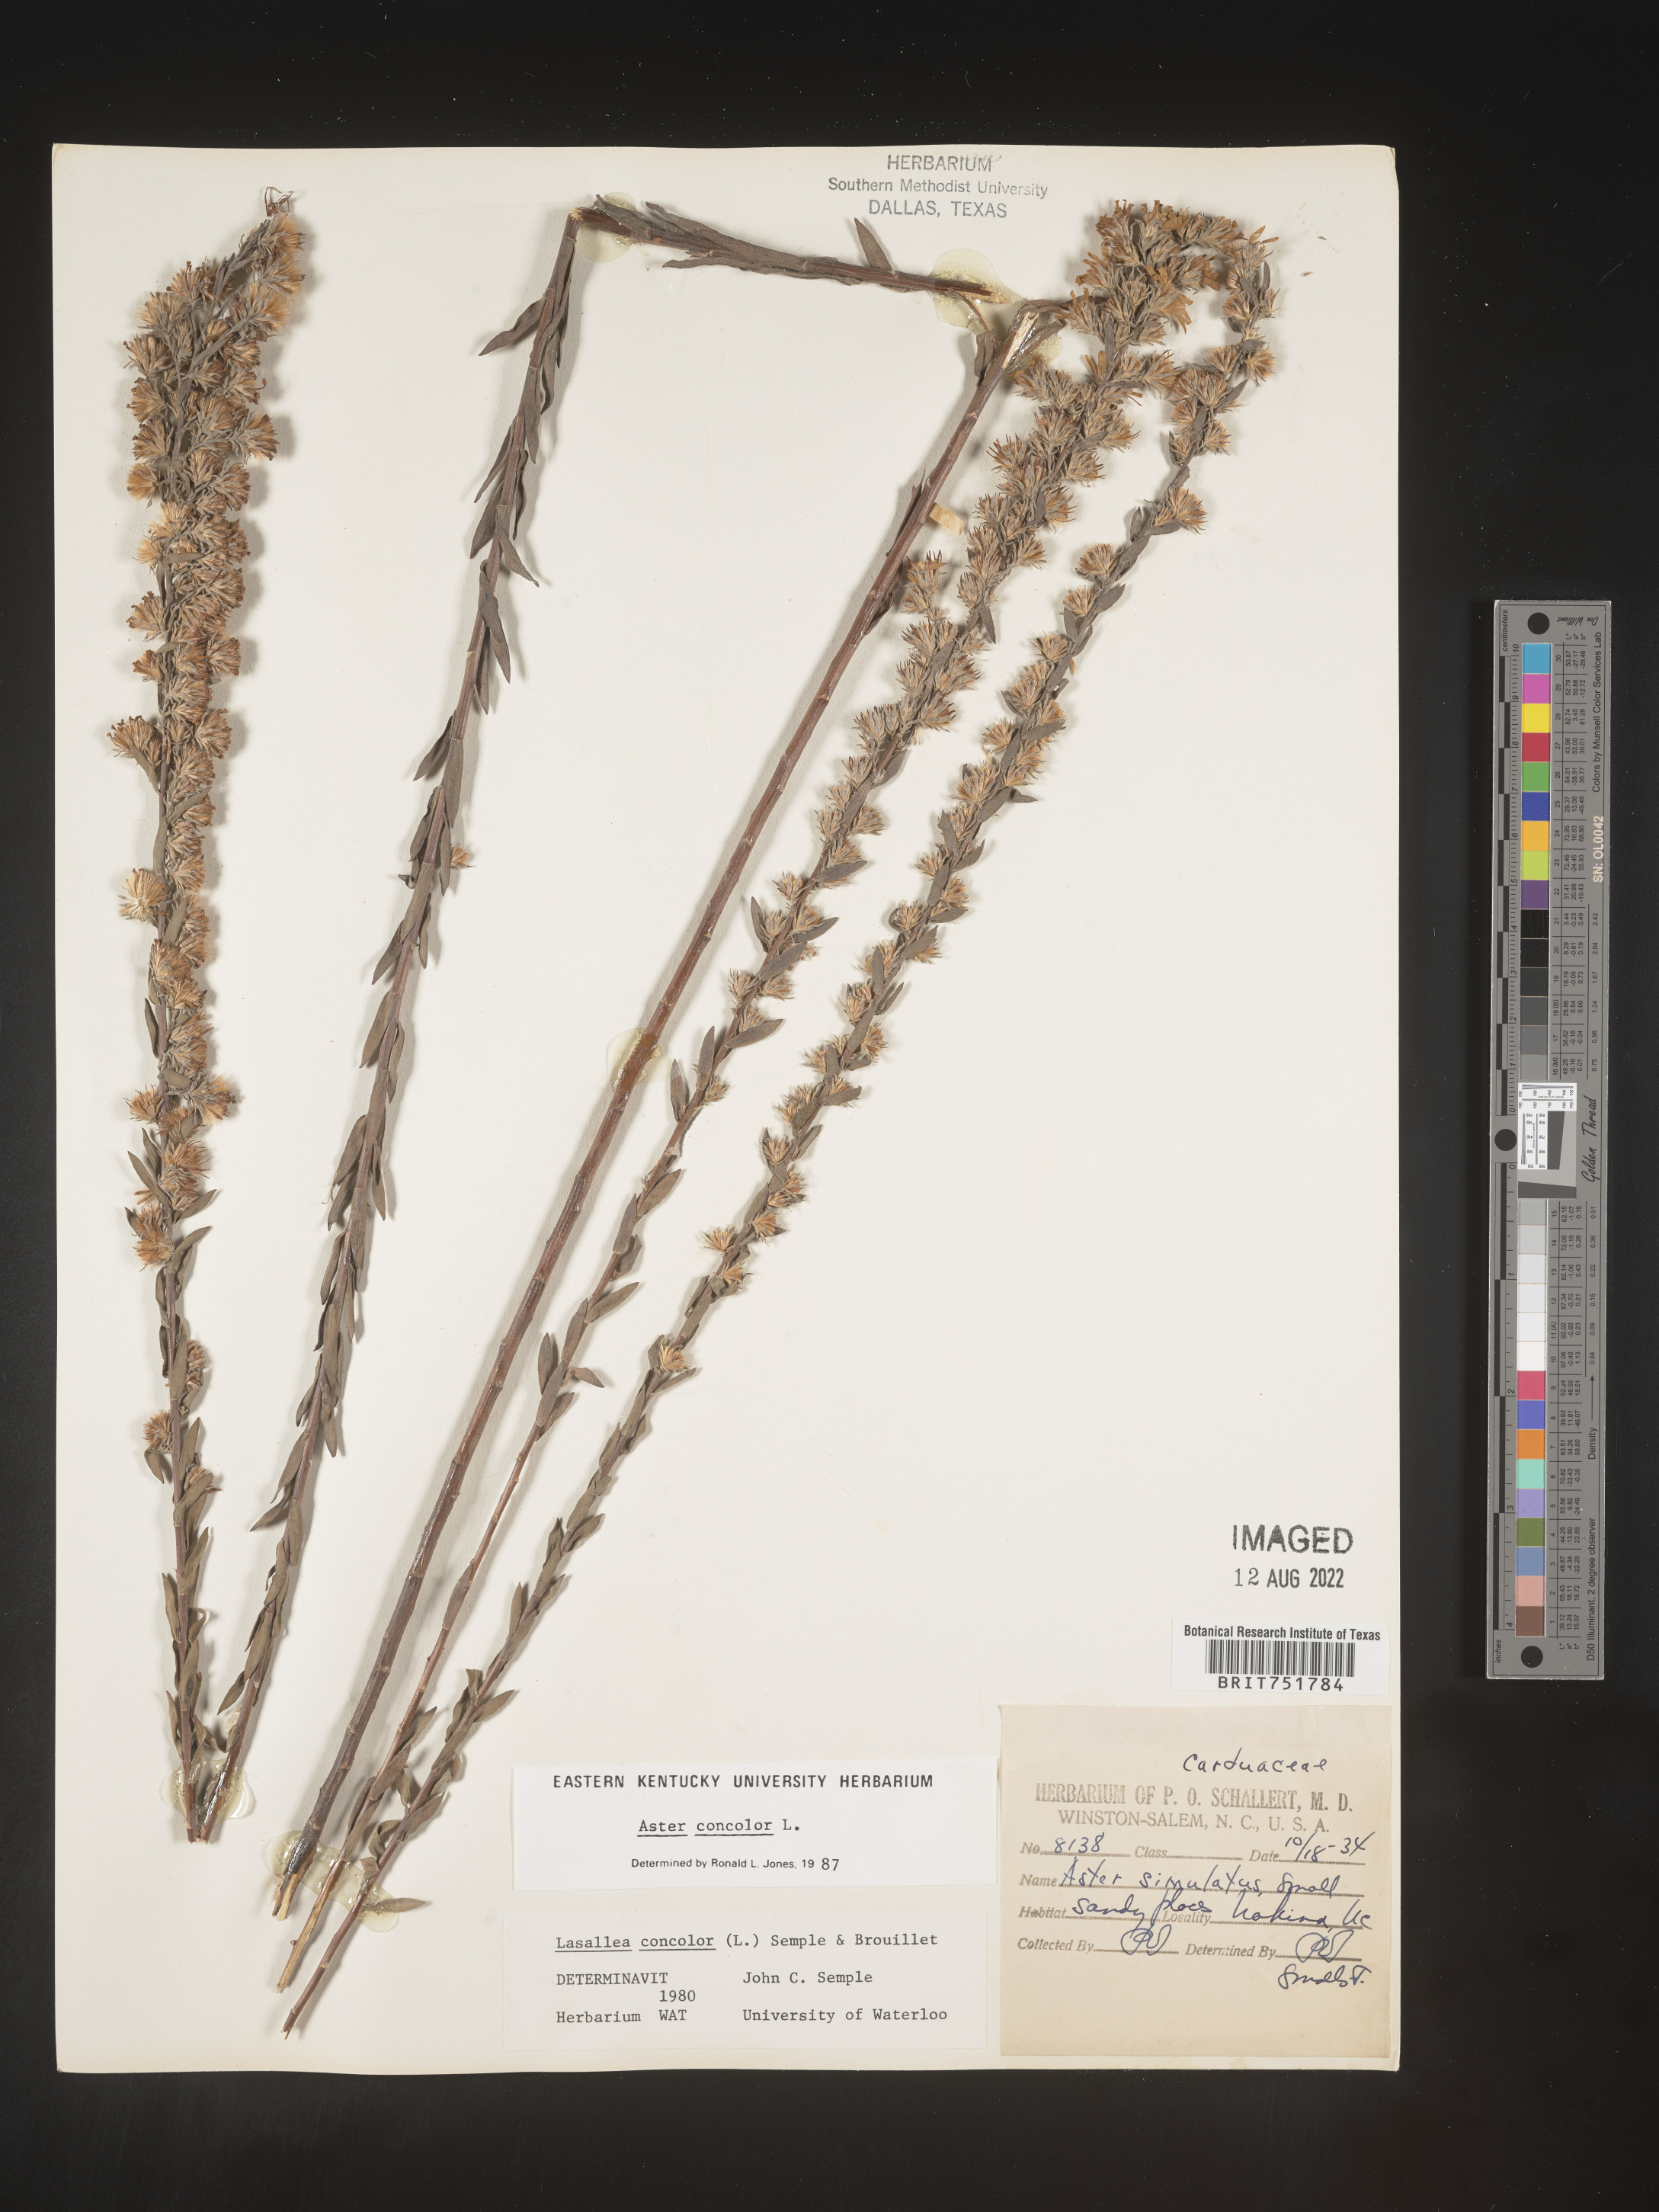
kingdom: Plantae
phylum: Tracheophyta
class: Magnoliopsida
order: Asterales
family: Asteraceae
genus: Symphyotrichum
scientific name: Symphyotrichum concolor
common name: Eastern silver aster
